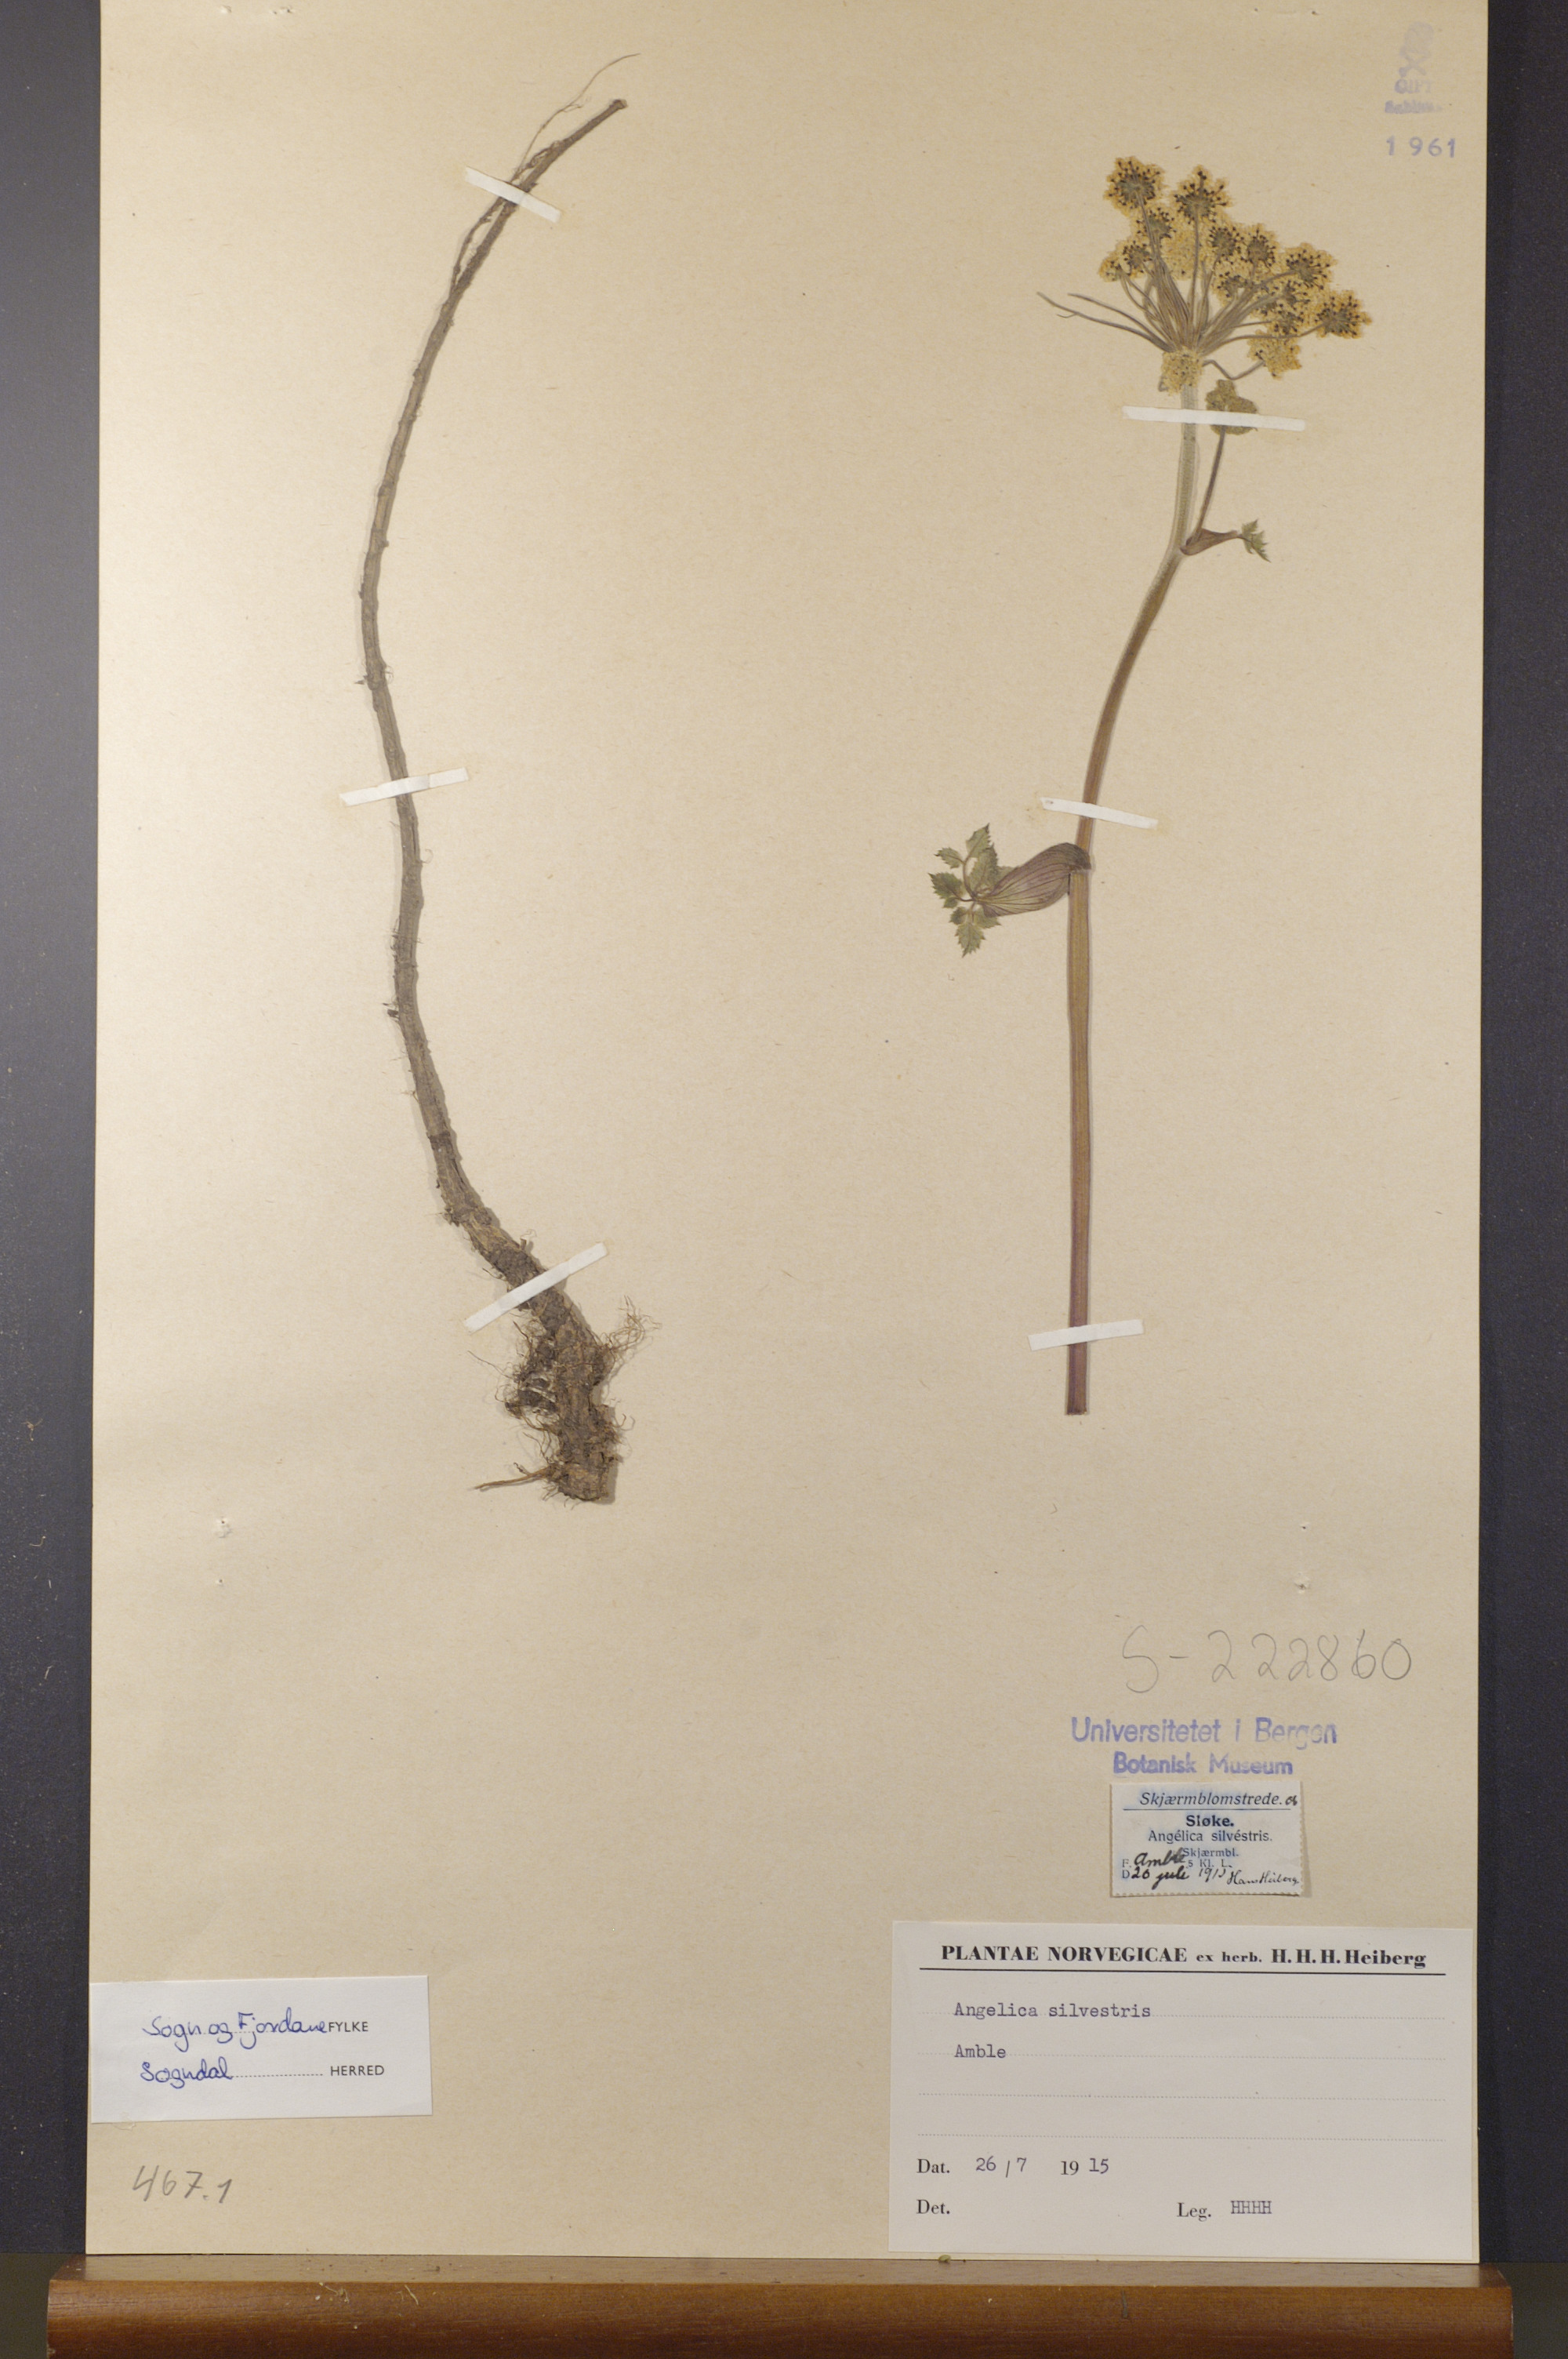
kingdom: Plantae
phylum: Tracheophyta
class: Magnoliopsida
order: Apiales
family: Apiaceae
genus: Angelica
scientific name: Angelica sylvestris
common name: Wild angelica
